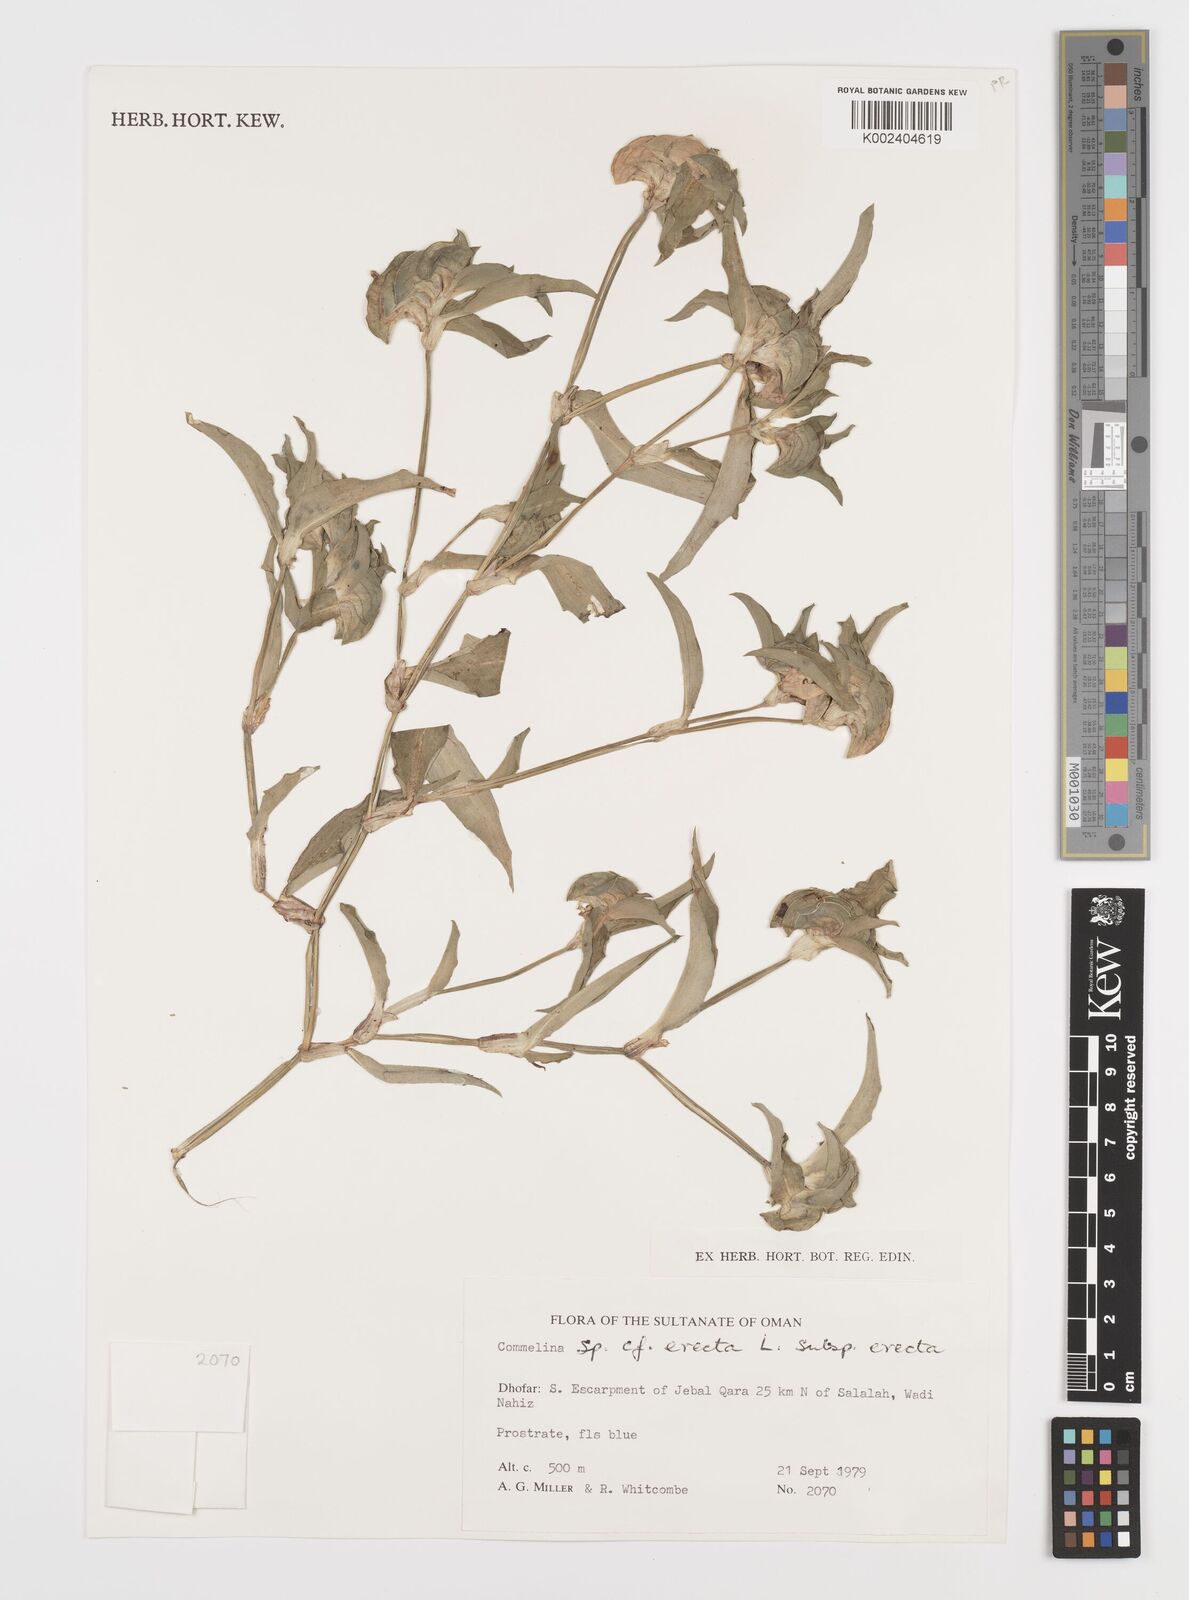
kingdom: Plantae
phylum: Tracheophyta
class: Liliopsida
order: Commelinales
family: Commelinaceae
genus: Commelina
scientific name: Commelina erecta
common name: Blousel blommetjie
